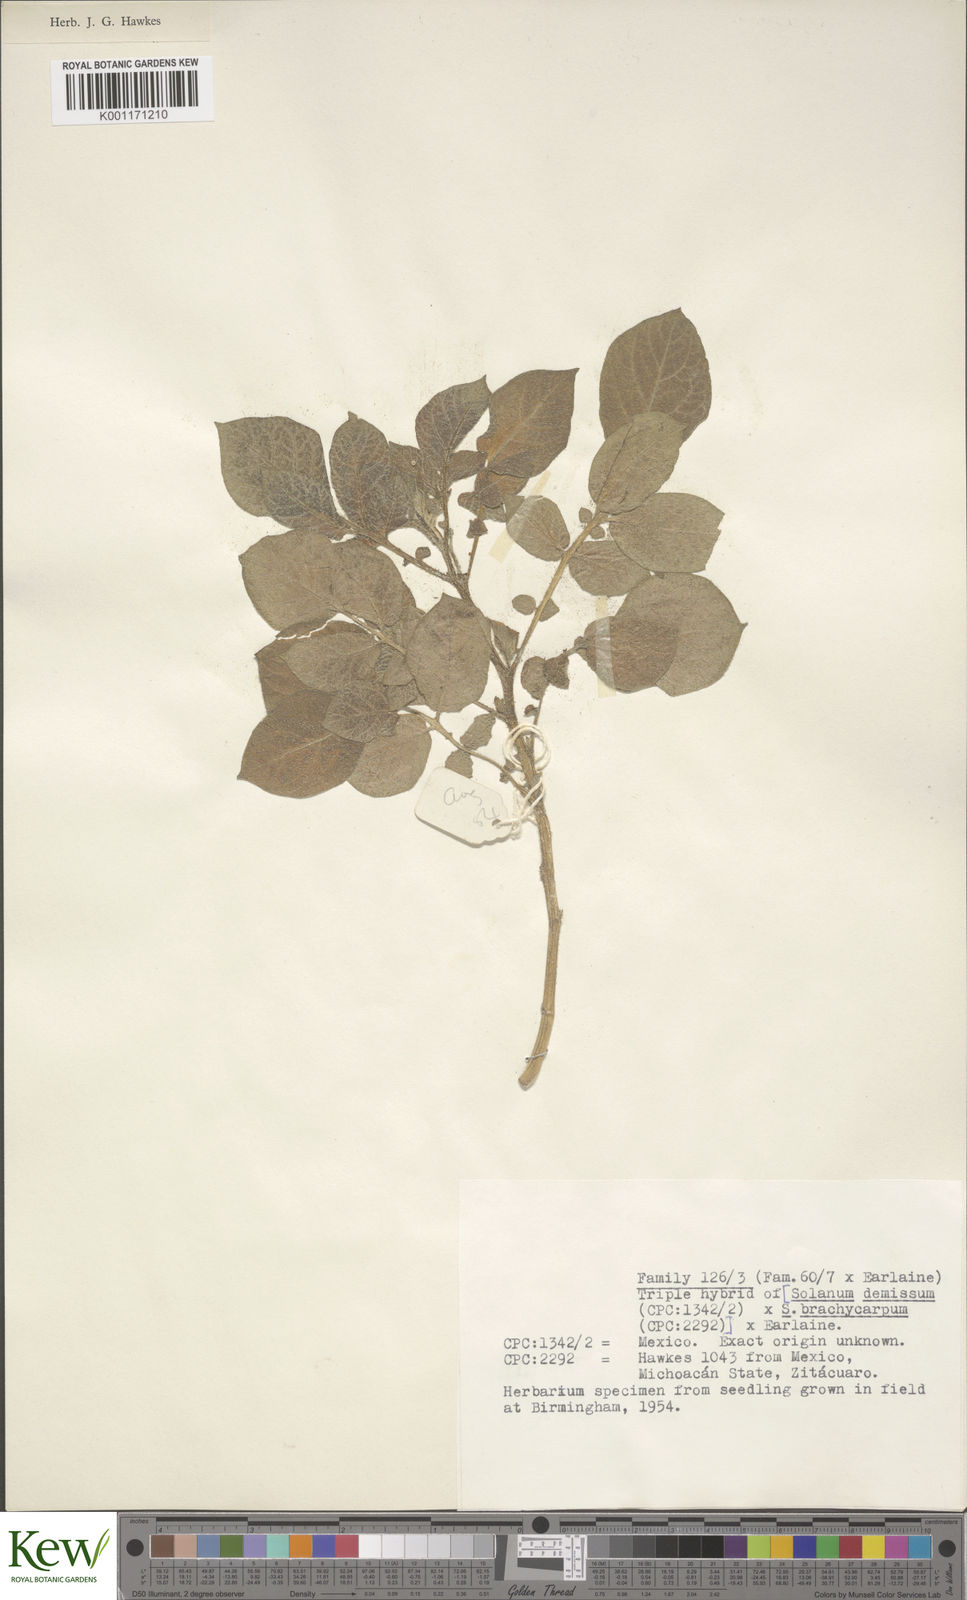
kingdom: Plantae
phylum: Tracheophyta
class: Magnoliopsida
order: Solanales
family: Solanaceae
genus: Solanum
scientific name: Solanum demissum
